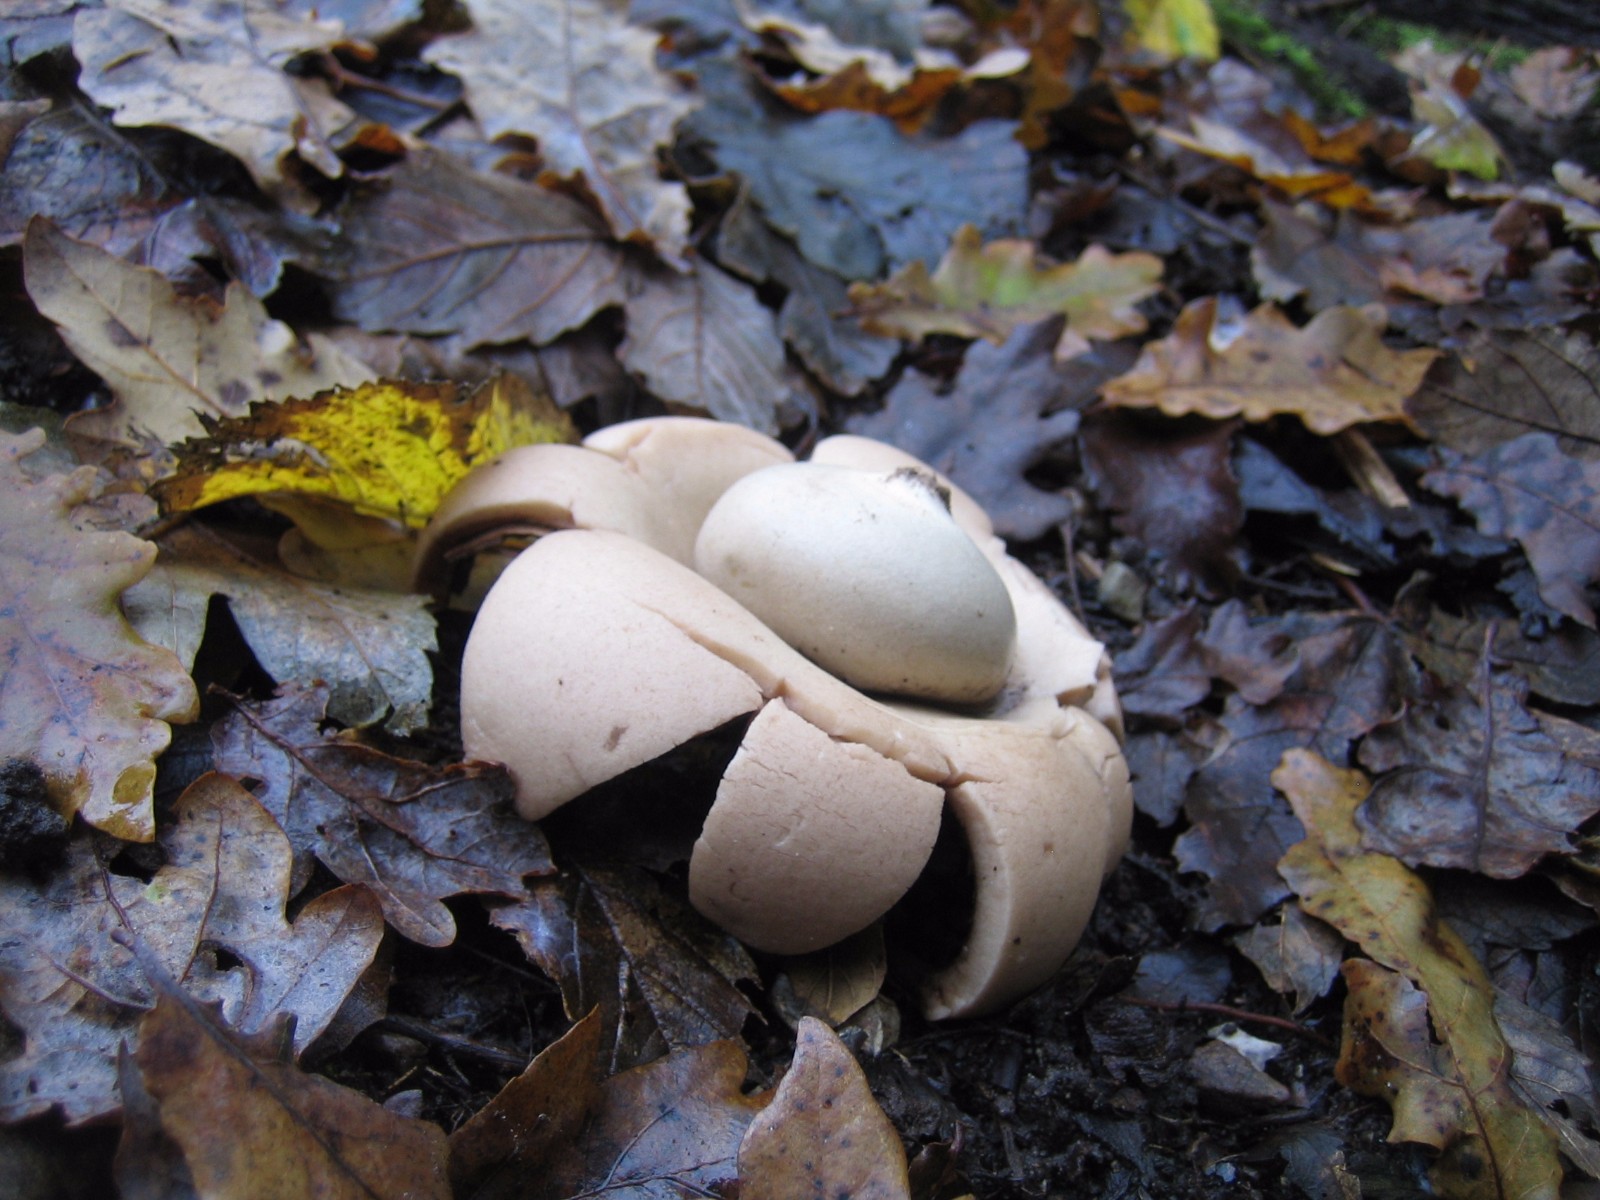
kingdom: Fungi
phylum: Basidiomycota
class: Agaricomycetes
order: Geastrales
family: Geastraceae
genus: Geastrum
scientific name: Geastrum michelianum
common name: kødet stjernebold
